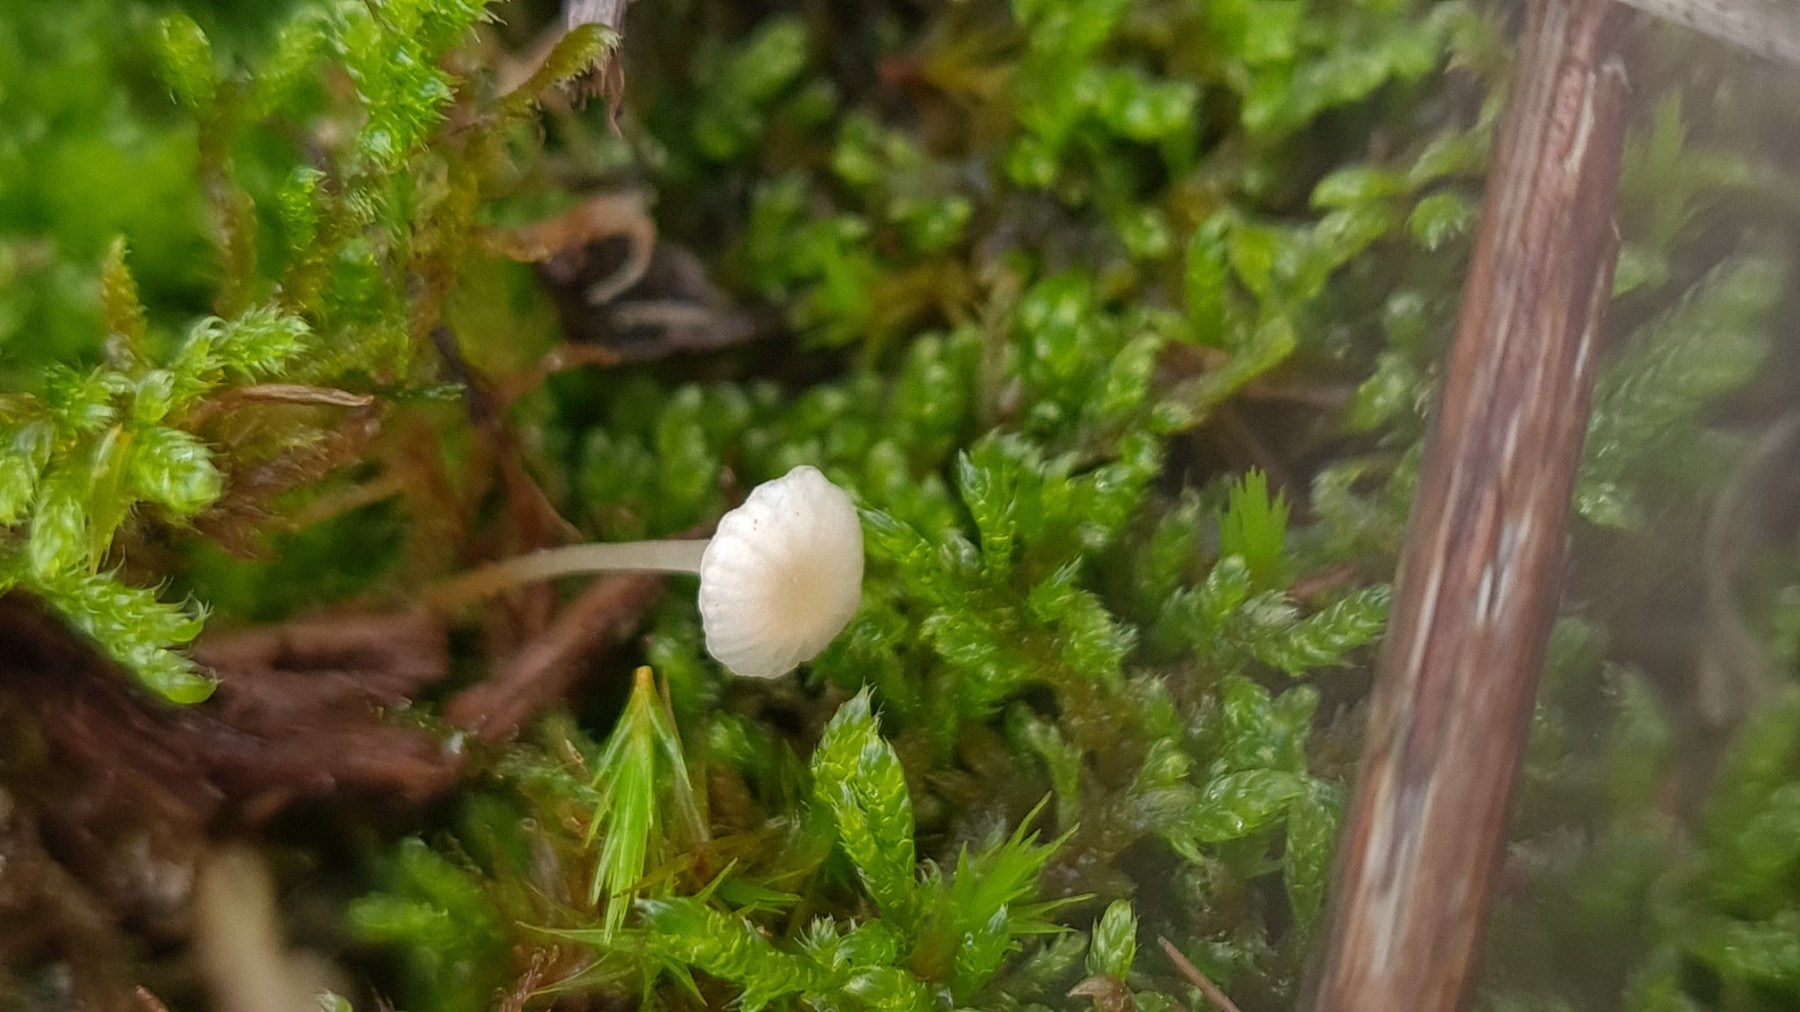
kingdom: Fungi
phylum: Basidiomycota
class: Agaricomycetes
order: Hymenochaetales
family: Rickenellaceae
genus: Rickenella
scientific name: Rickenella
